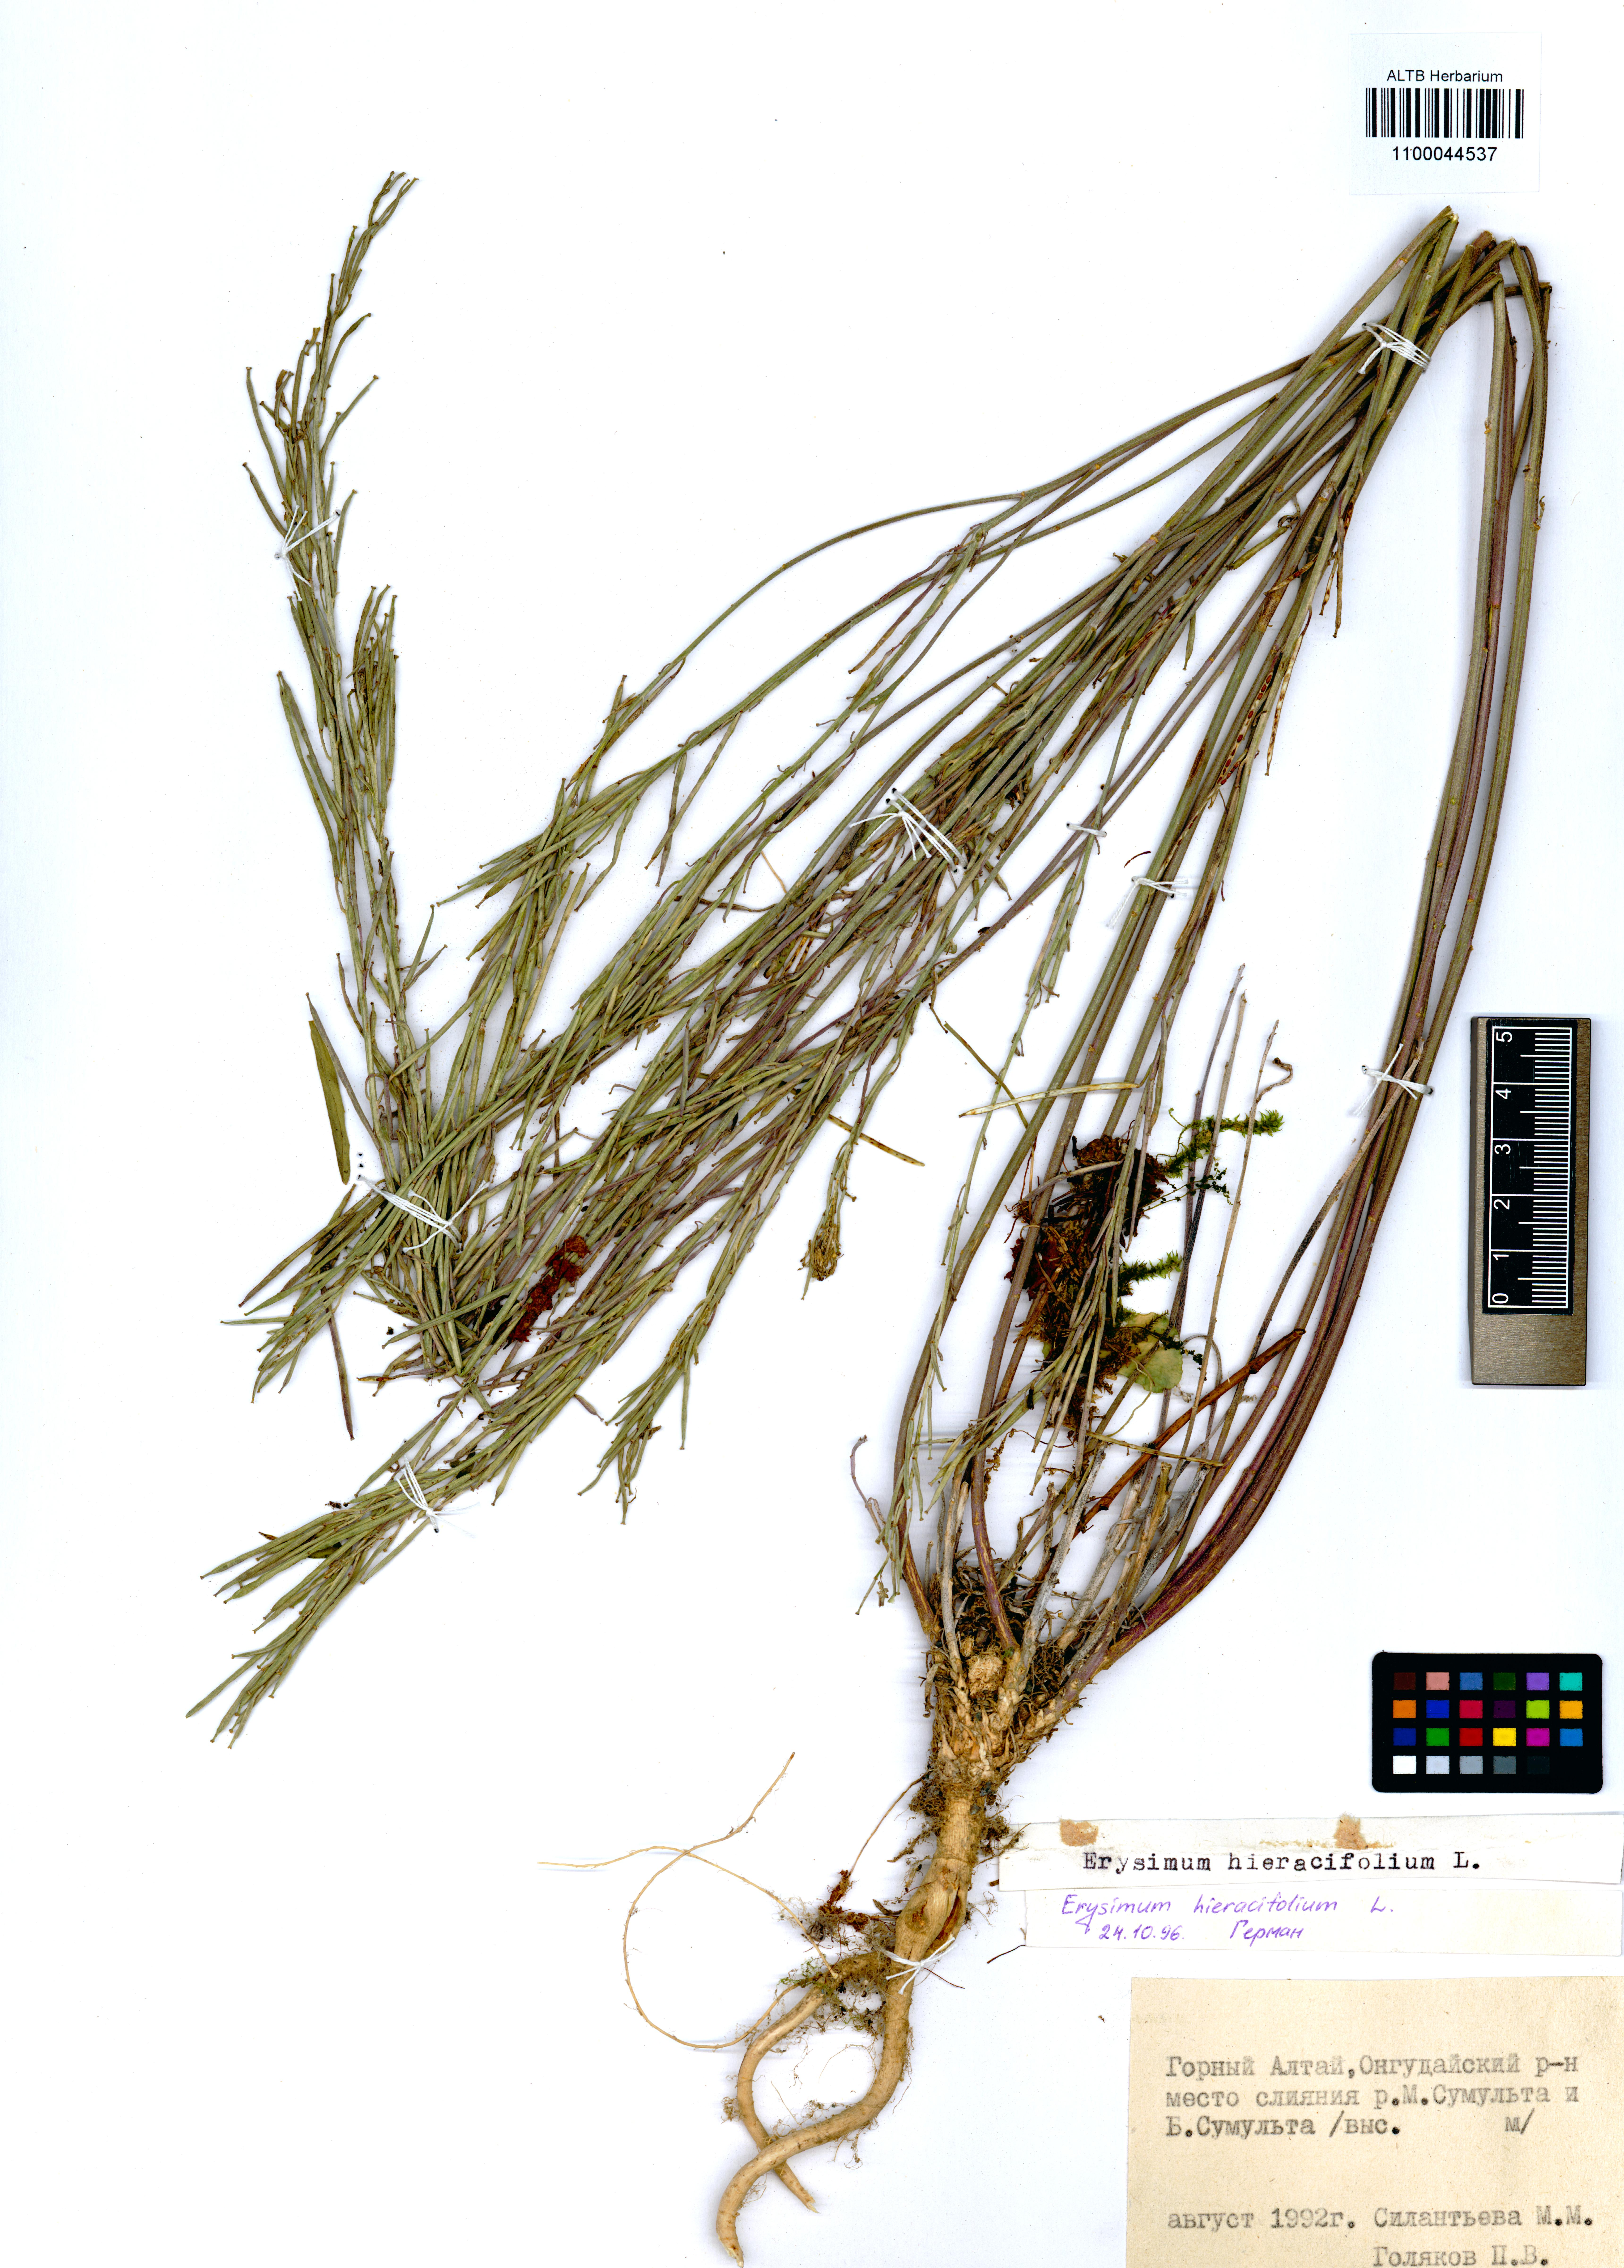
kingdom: Plantae
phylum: Tracheophyta
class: Magnoliopsida
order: Brassicales
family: Brassicaceae
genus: Erysimum
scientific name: Erysimum hieraciifolium
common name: European wallflower
